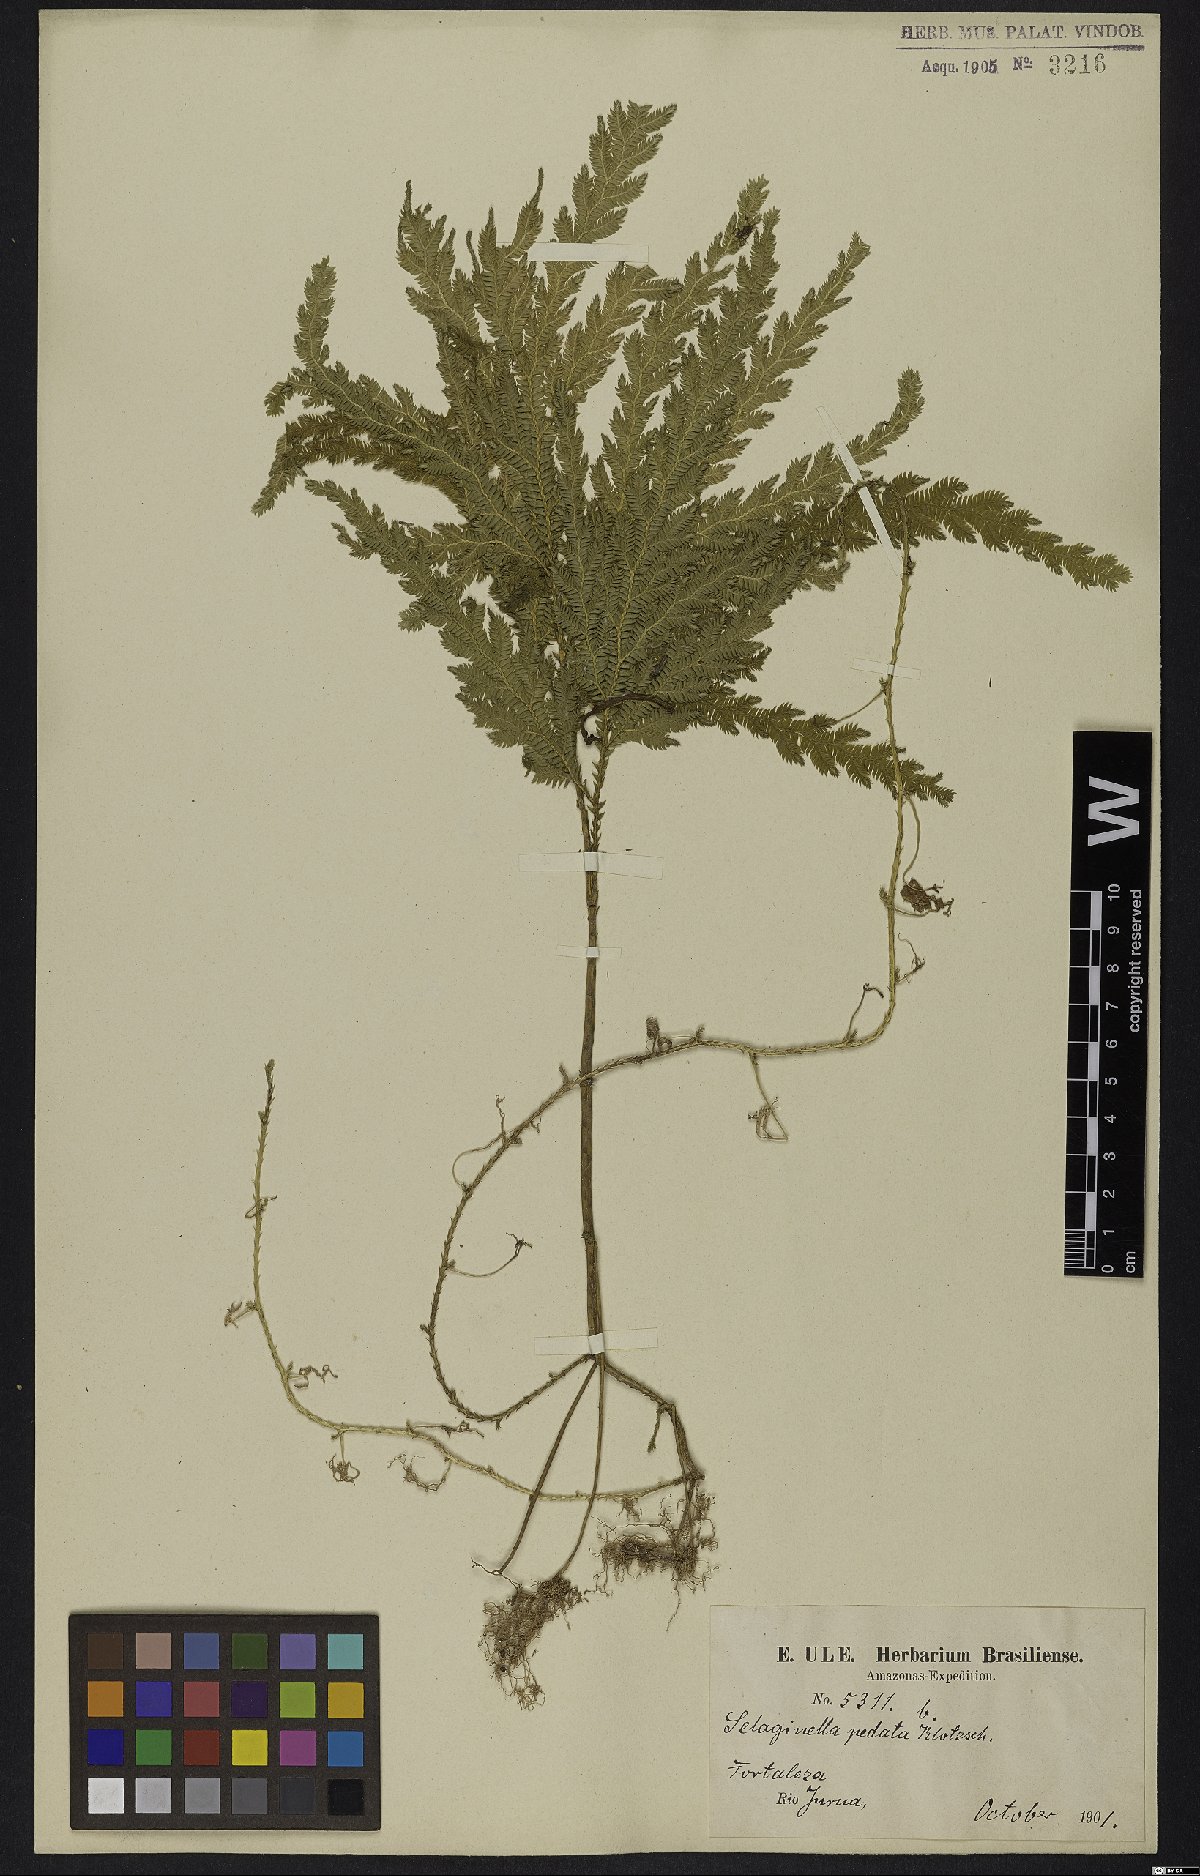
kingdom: Plantae
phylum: Tracheophyta
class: Lycopodiopsida
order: Selaginellales
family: Selaginellaceae
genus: Selaginella
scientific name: Selaginella pedata
